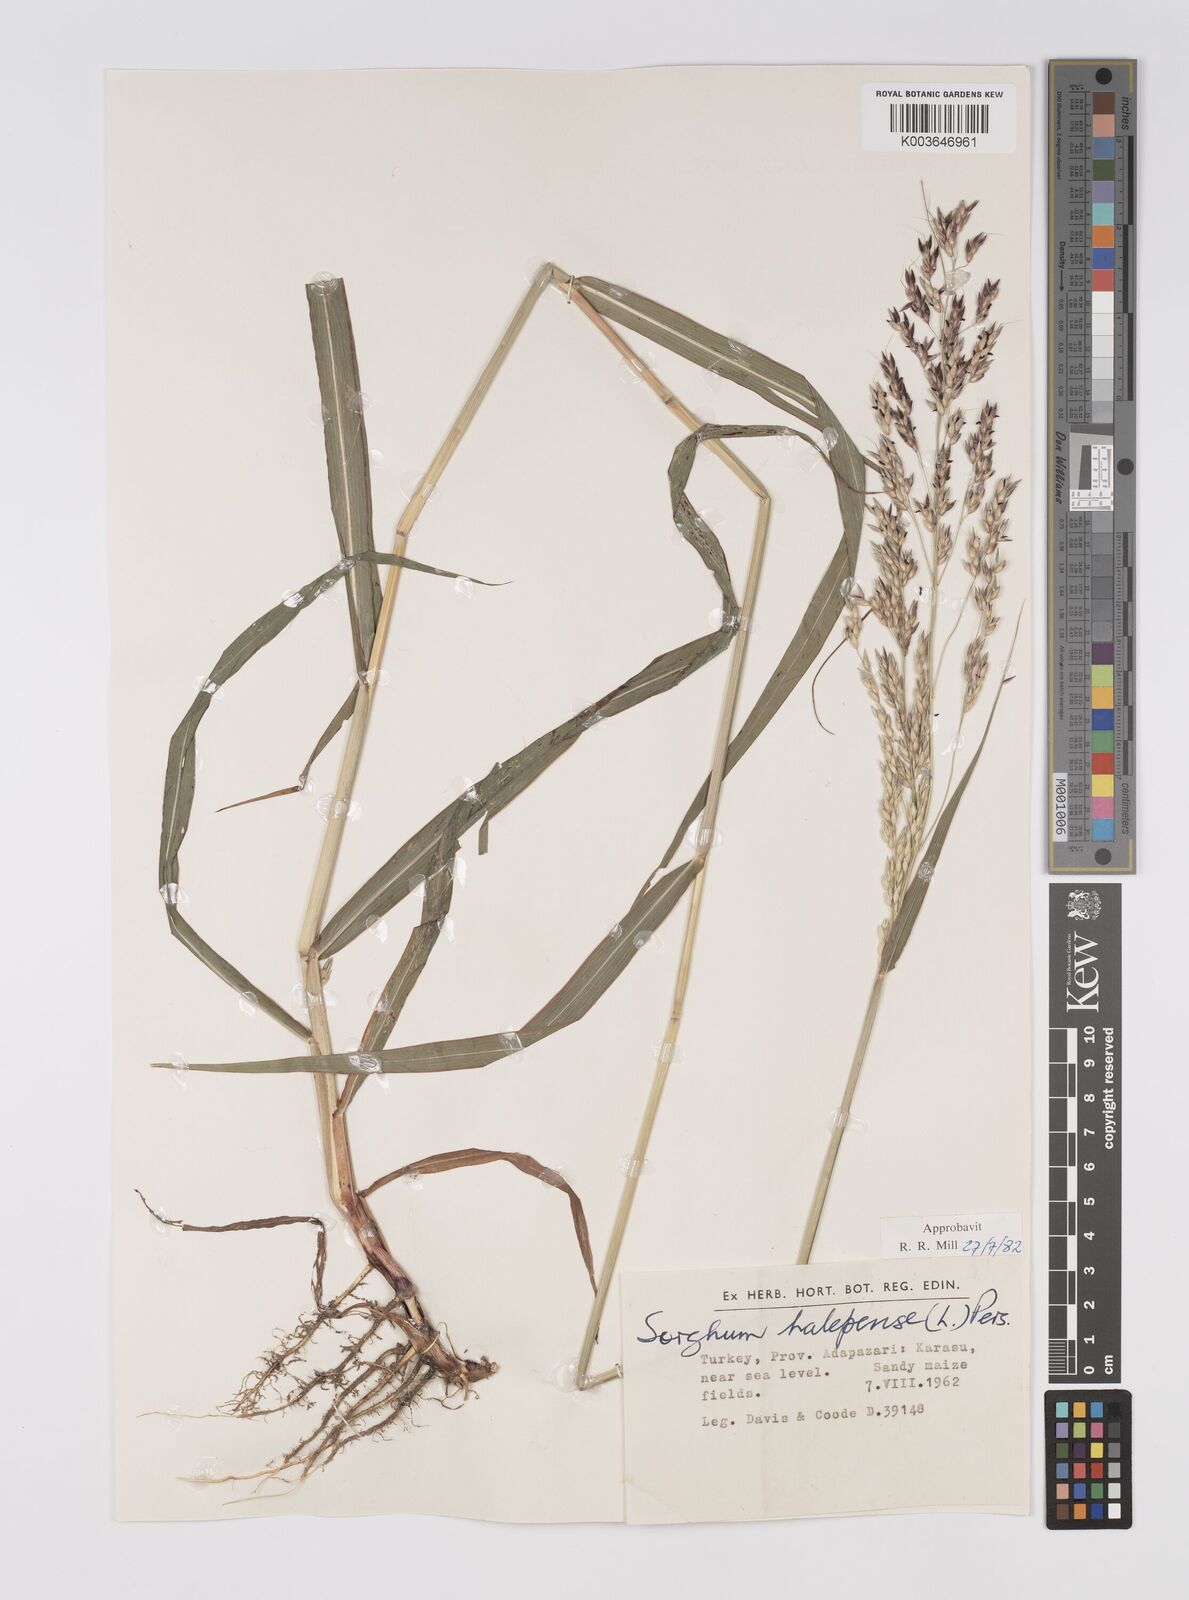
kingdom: Plantae
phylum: Tracheophyta
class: Liliopsida
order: Poales
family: Poaceae
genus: Sorghum
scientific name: Sorghum halepense
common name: Johnson-grass
